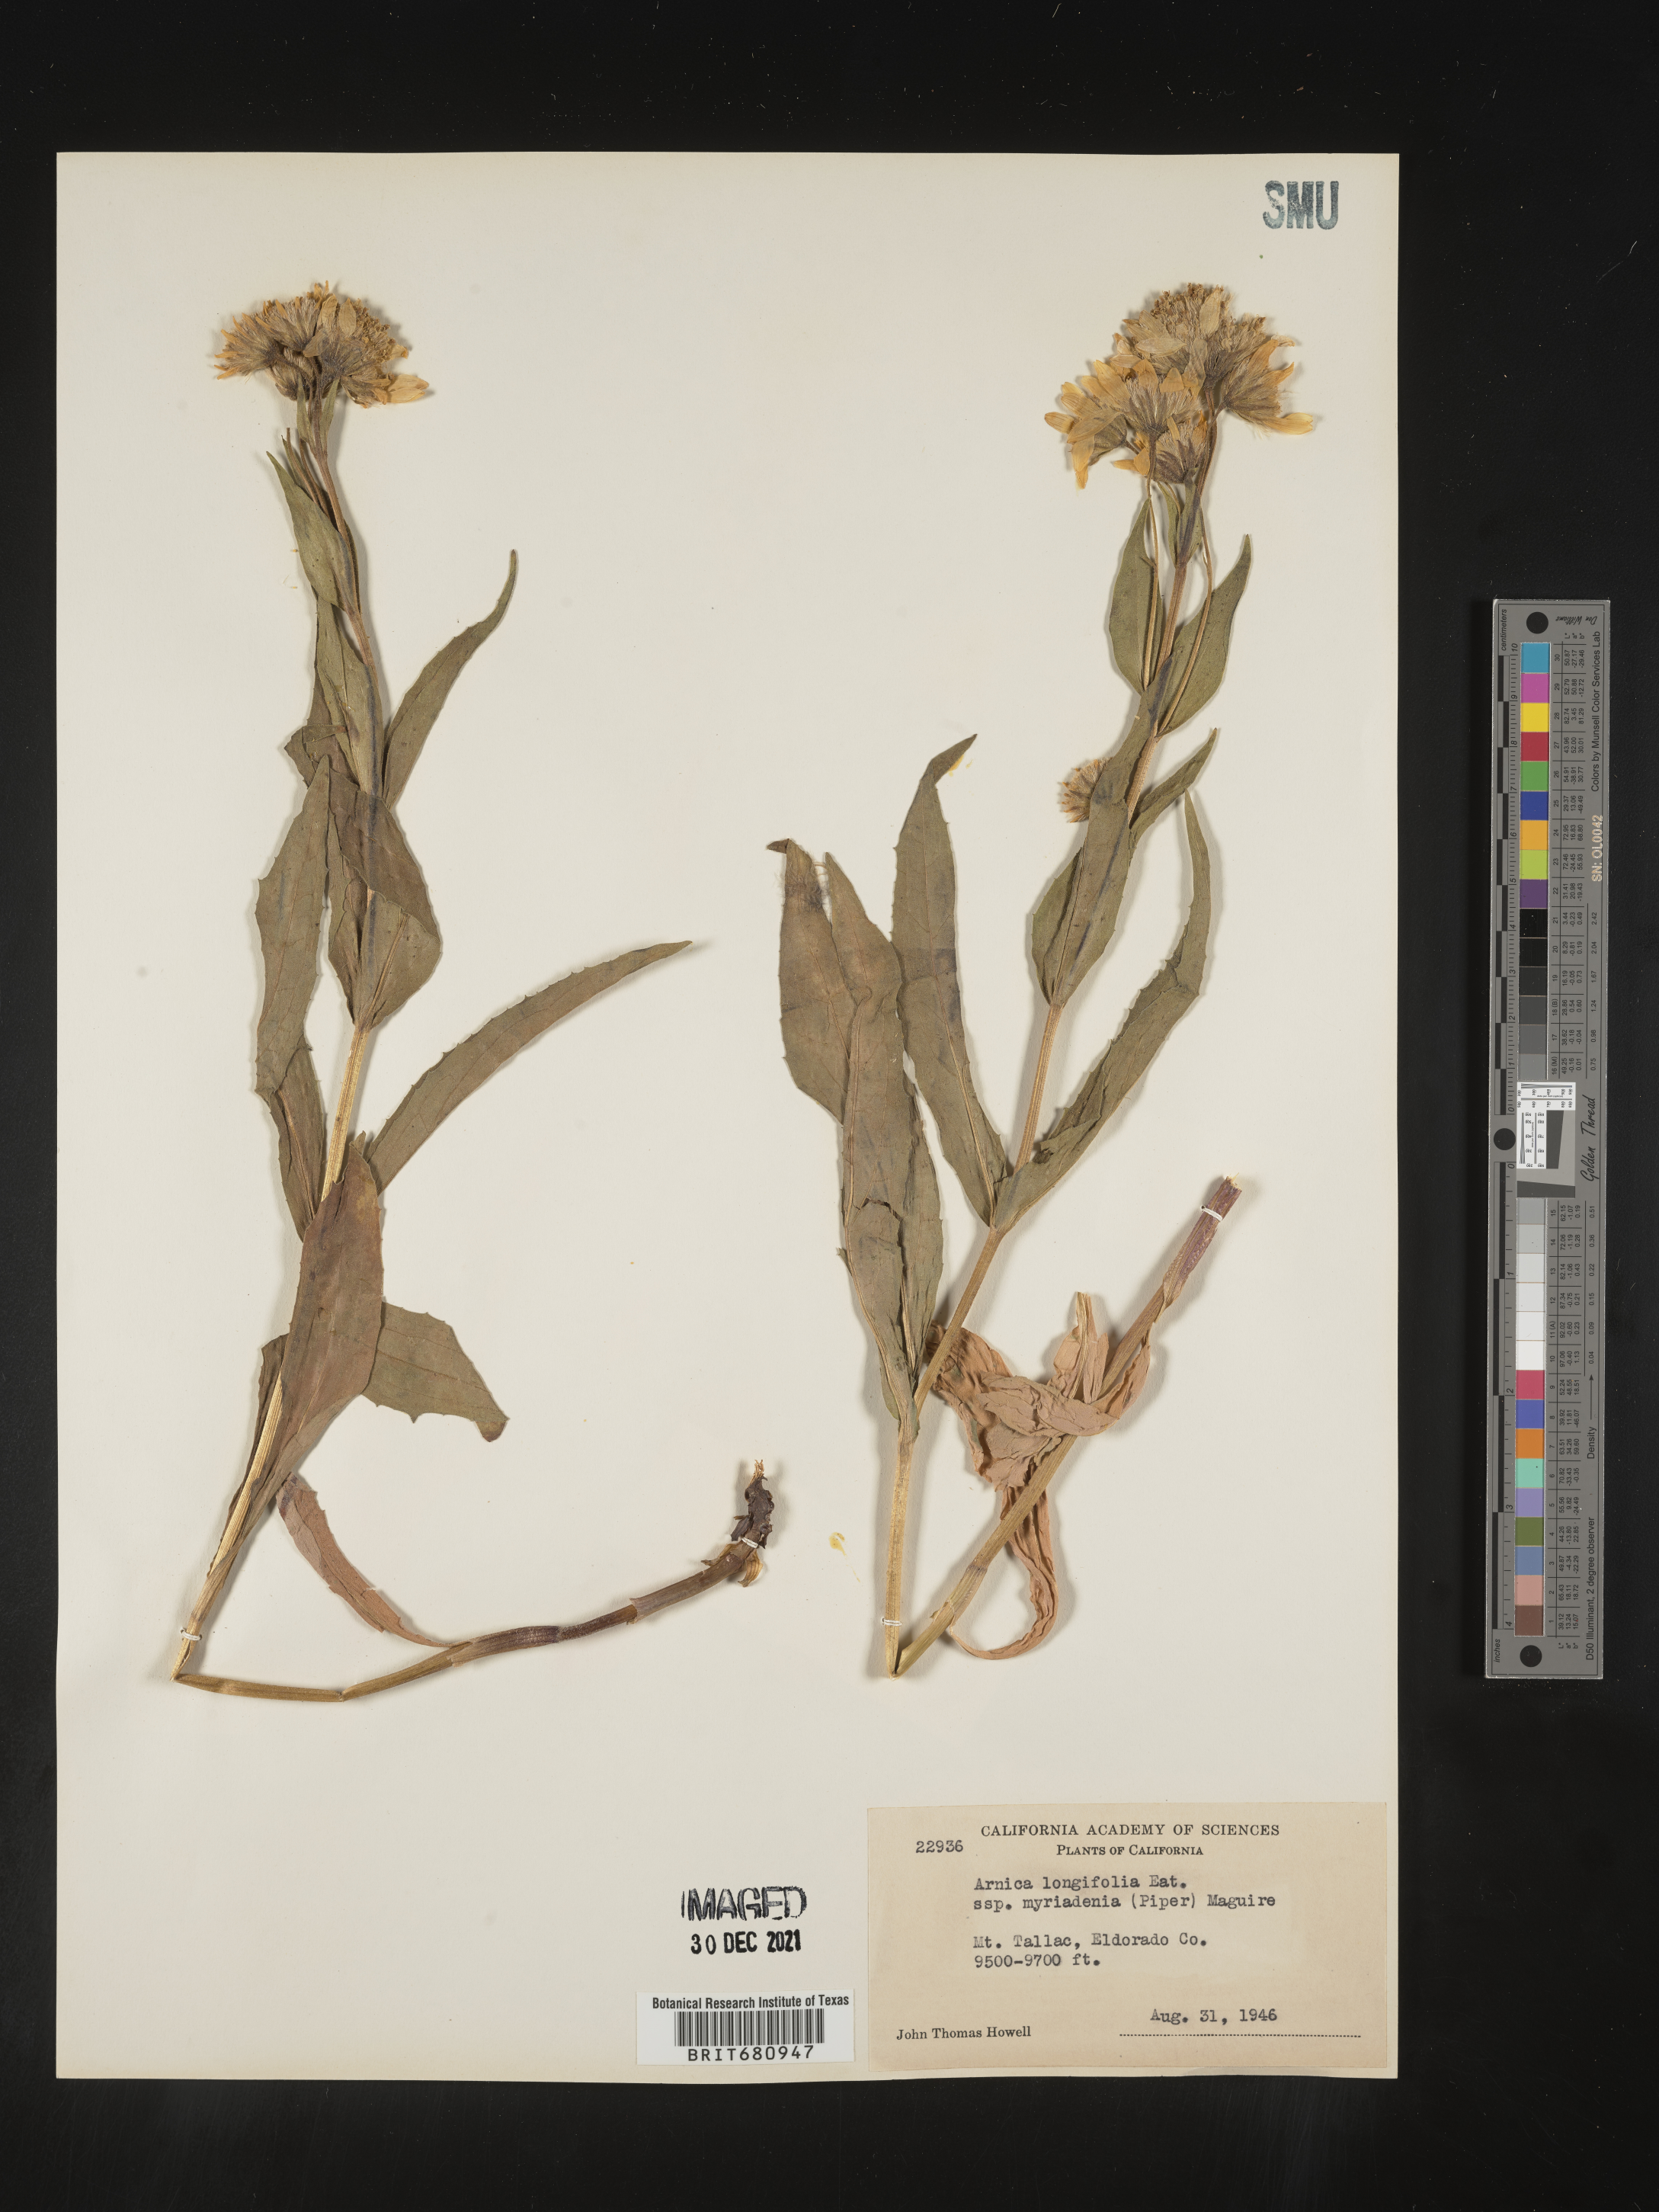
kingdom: Plantae
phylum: Tracheophyta
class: Magnoliopsida
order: Asterales
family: Asteraceae
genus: Arnica
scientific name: Arnica longifolia
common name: Spear-leaf arnica
